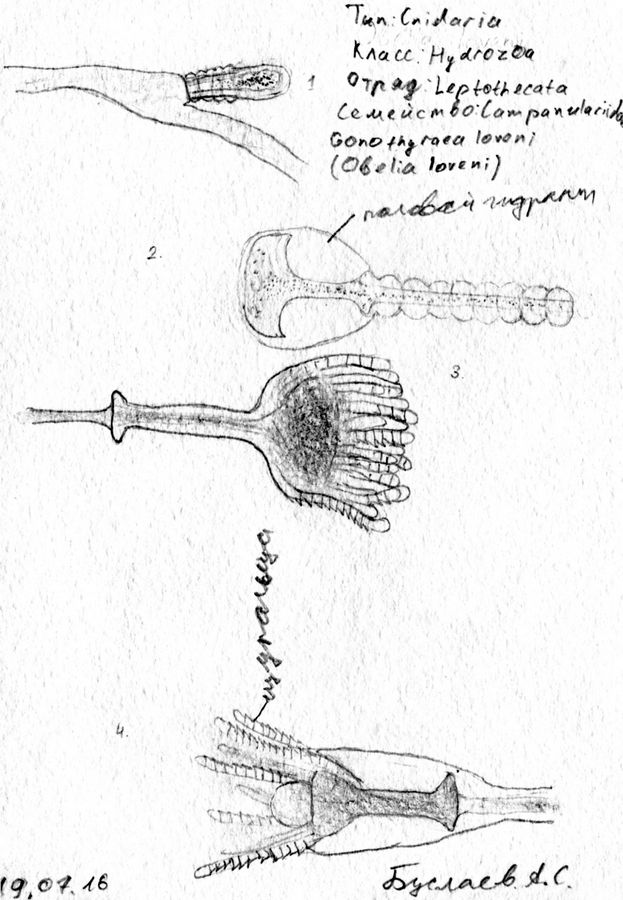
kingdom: Plantae
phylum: Tracheophyta
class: Magnoliopsida
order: Asterales
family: Campanulaceae
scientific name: Campanulaceae
